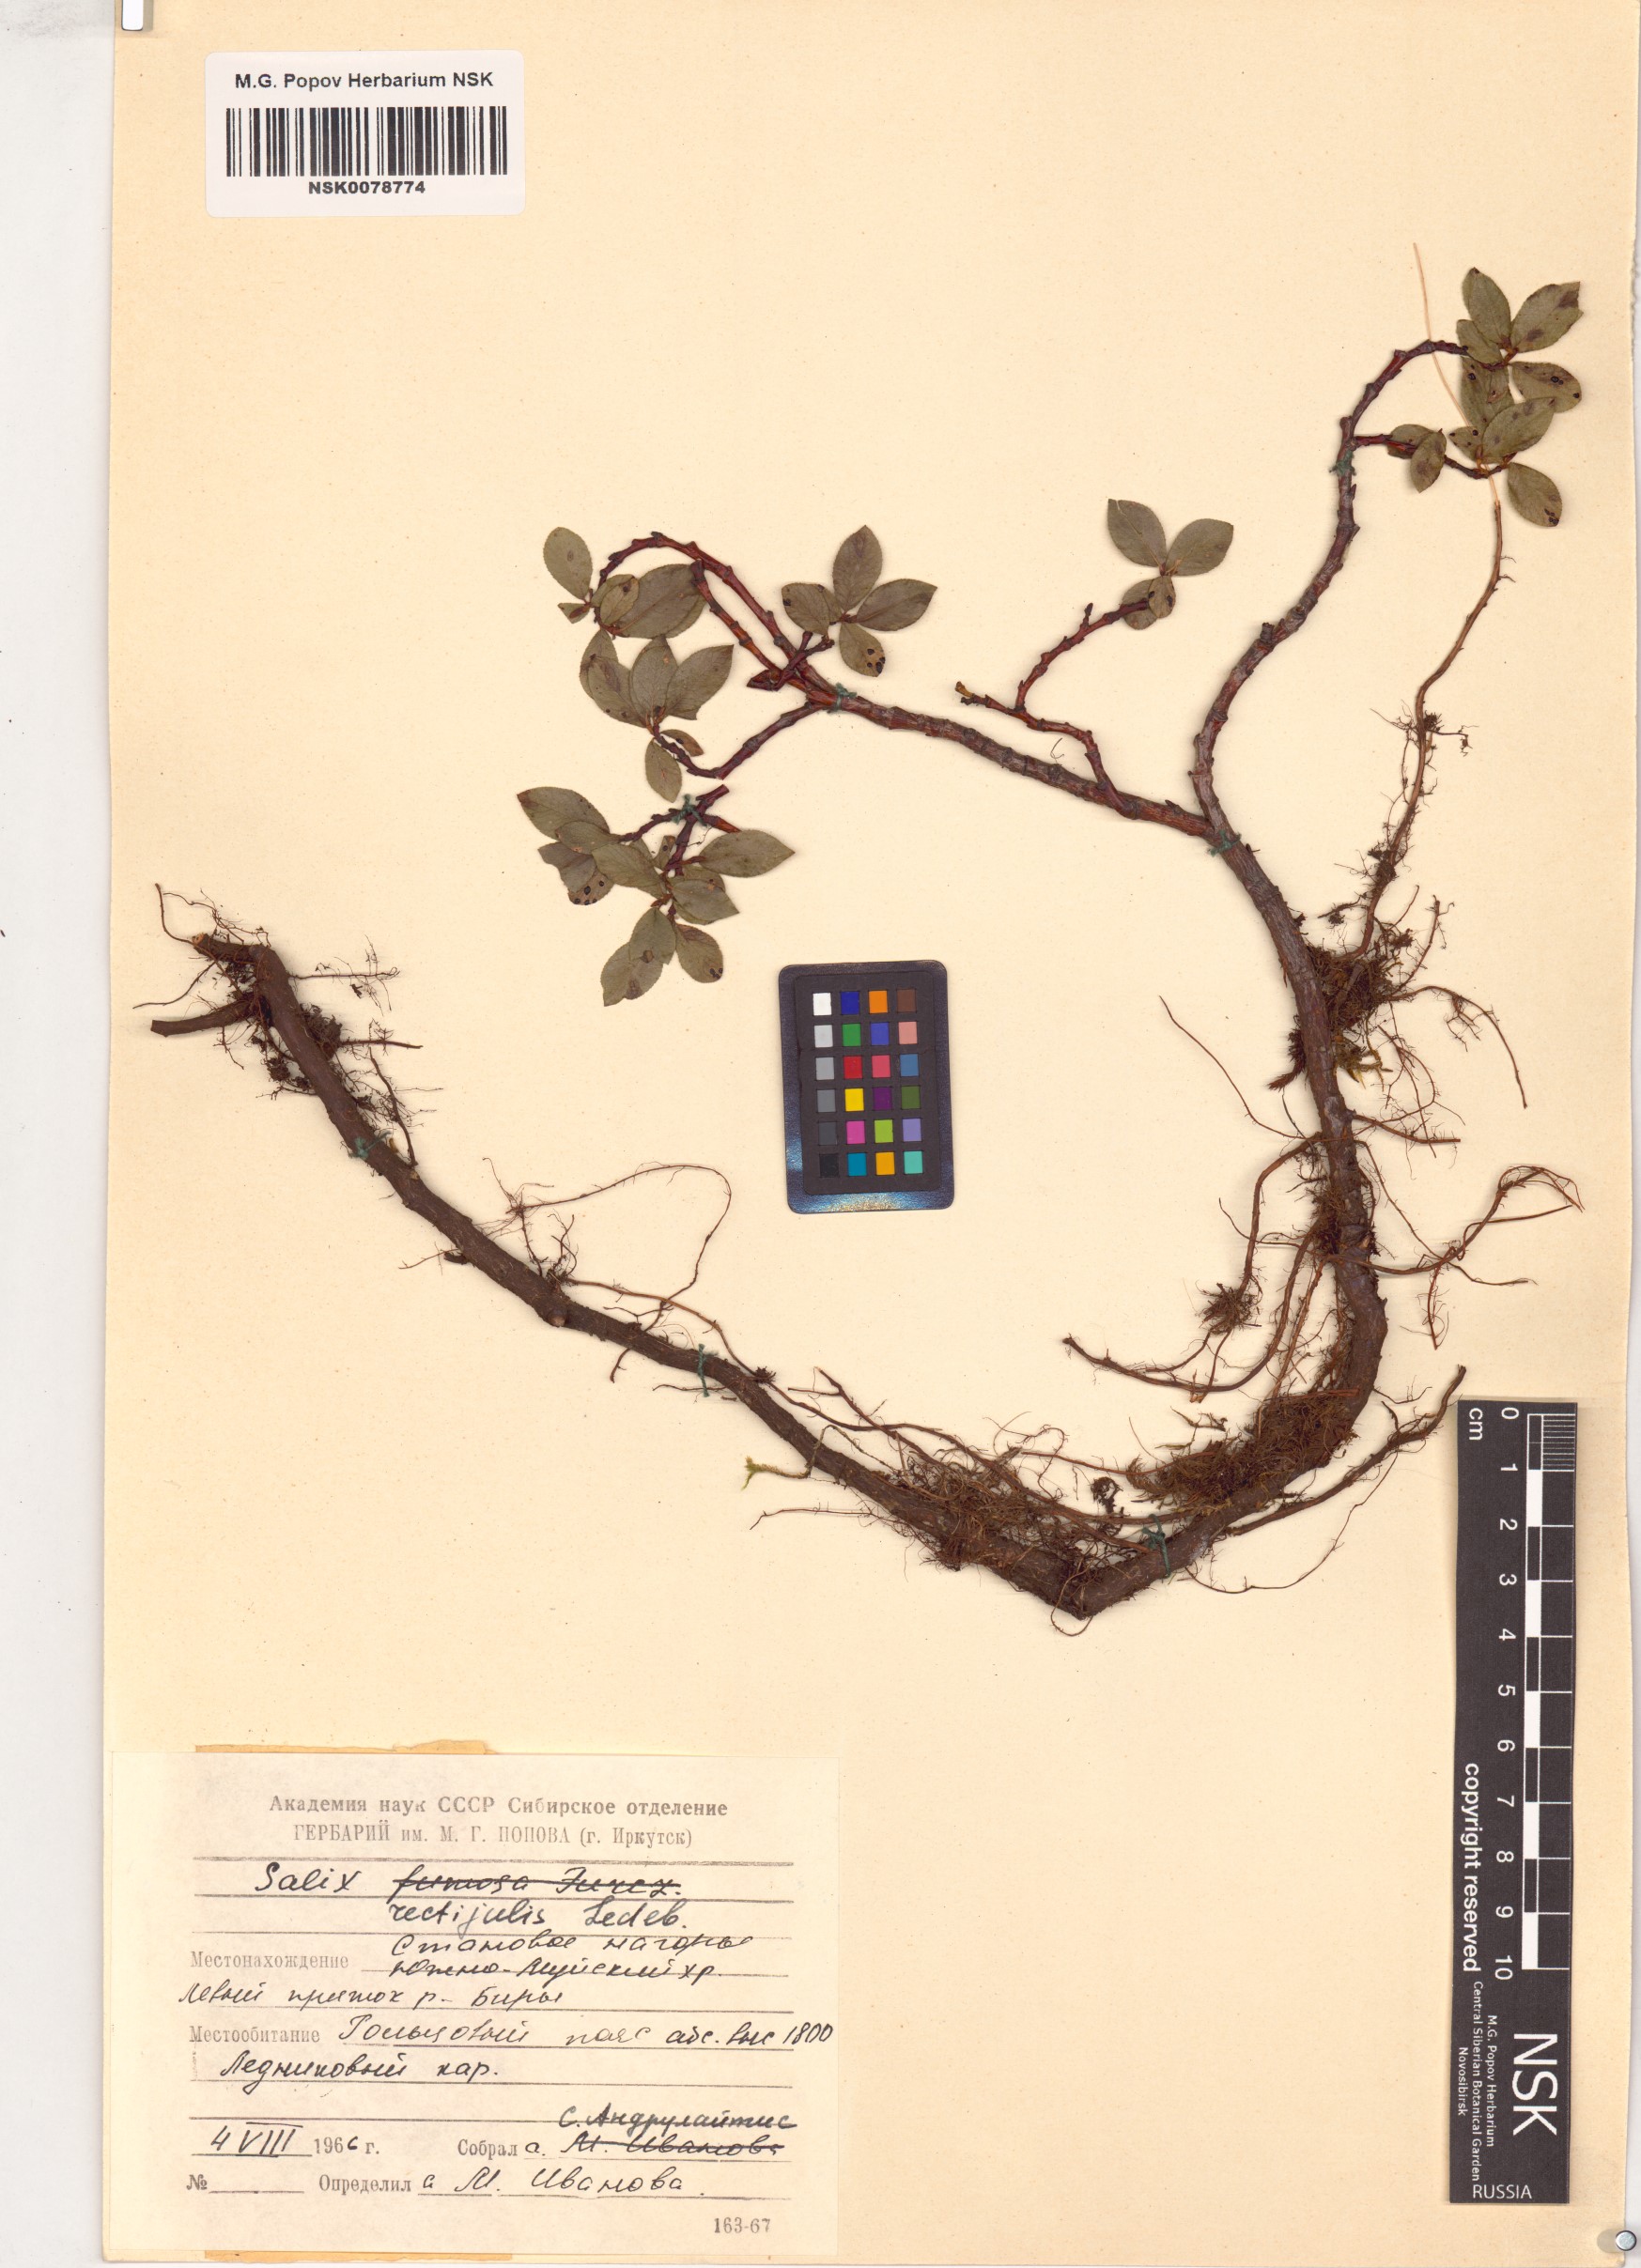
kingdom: Plantae
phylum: Tracheophyta
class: Magnoliopsida
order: Malpighiales
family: Salicaceae
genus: Salix
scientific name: Salix rectijulis
